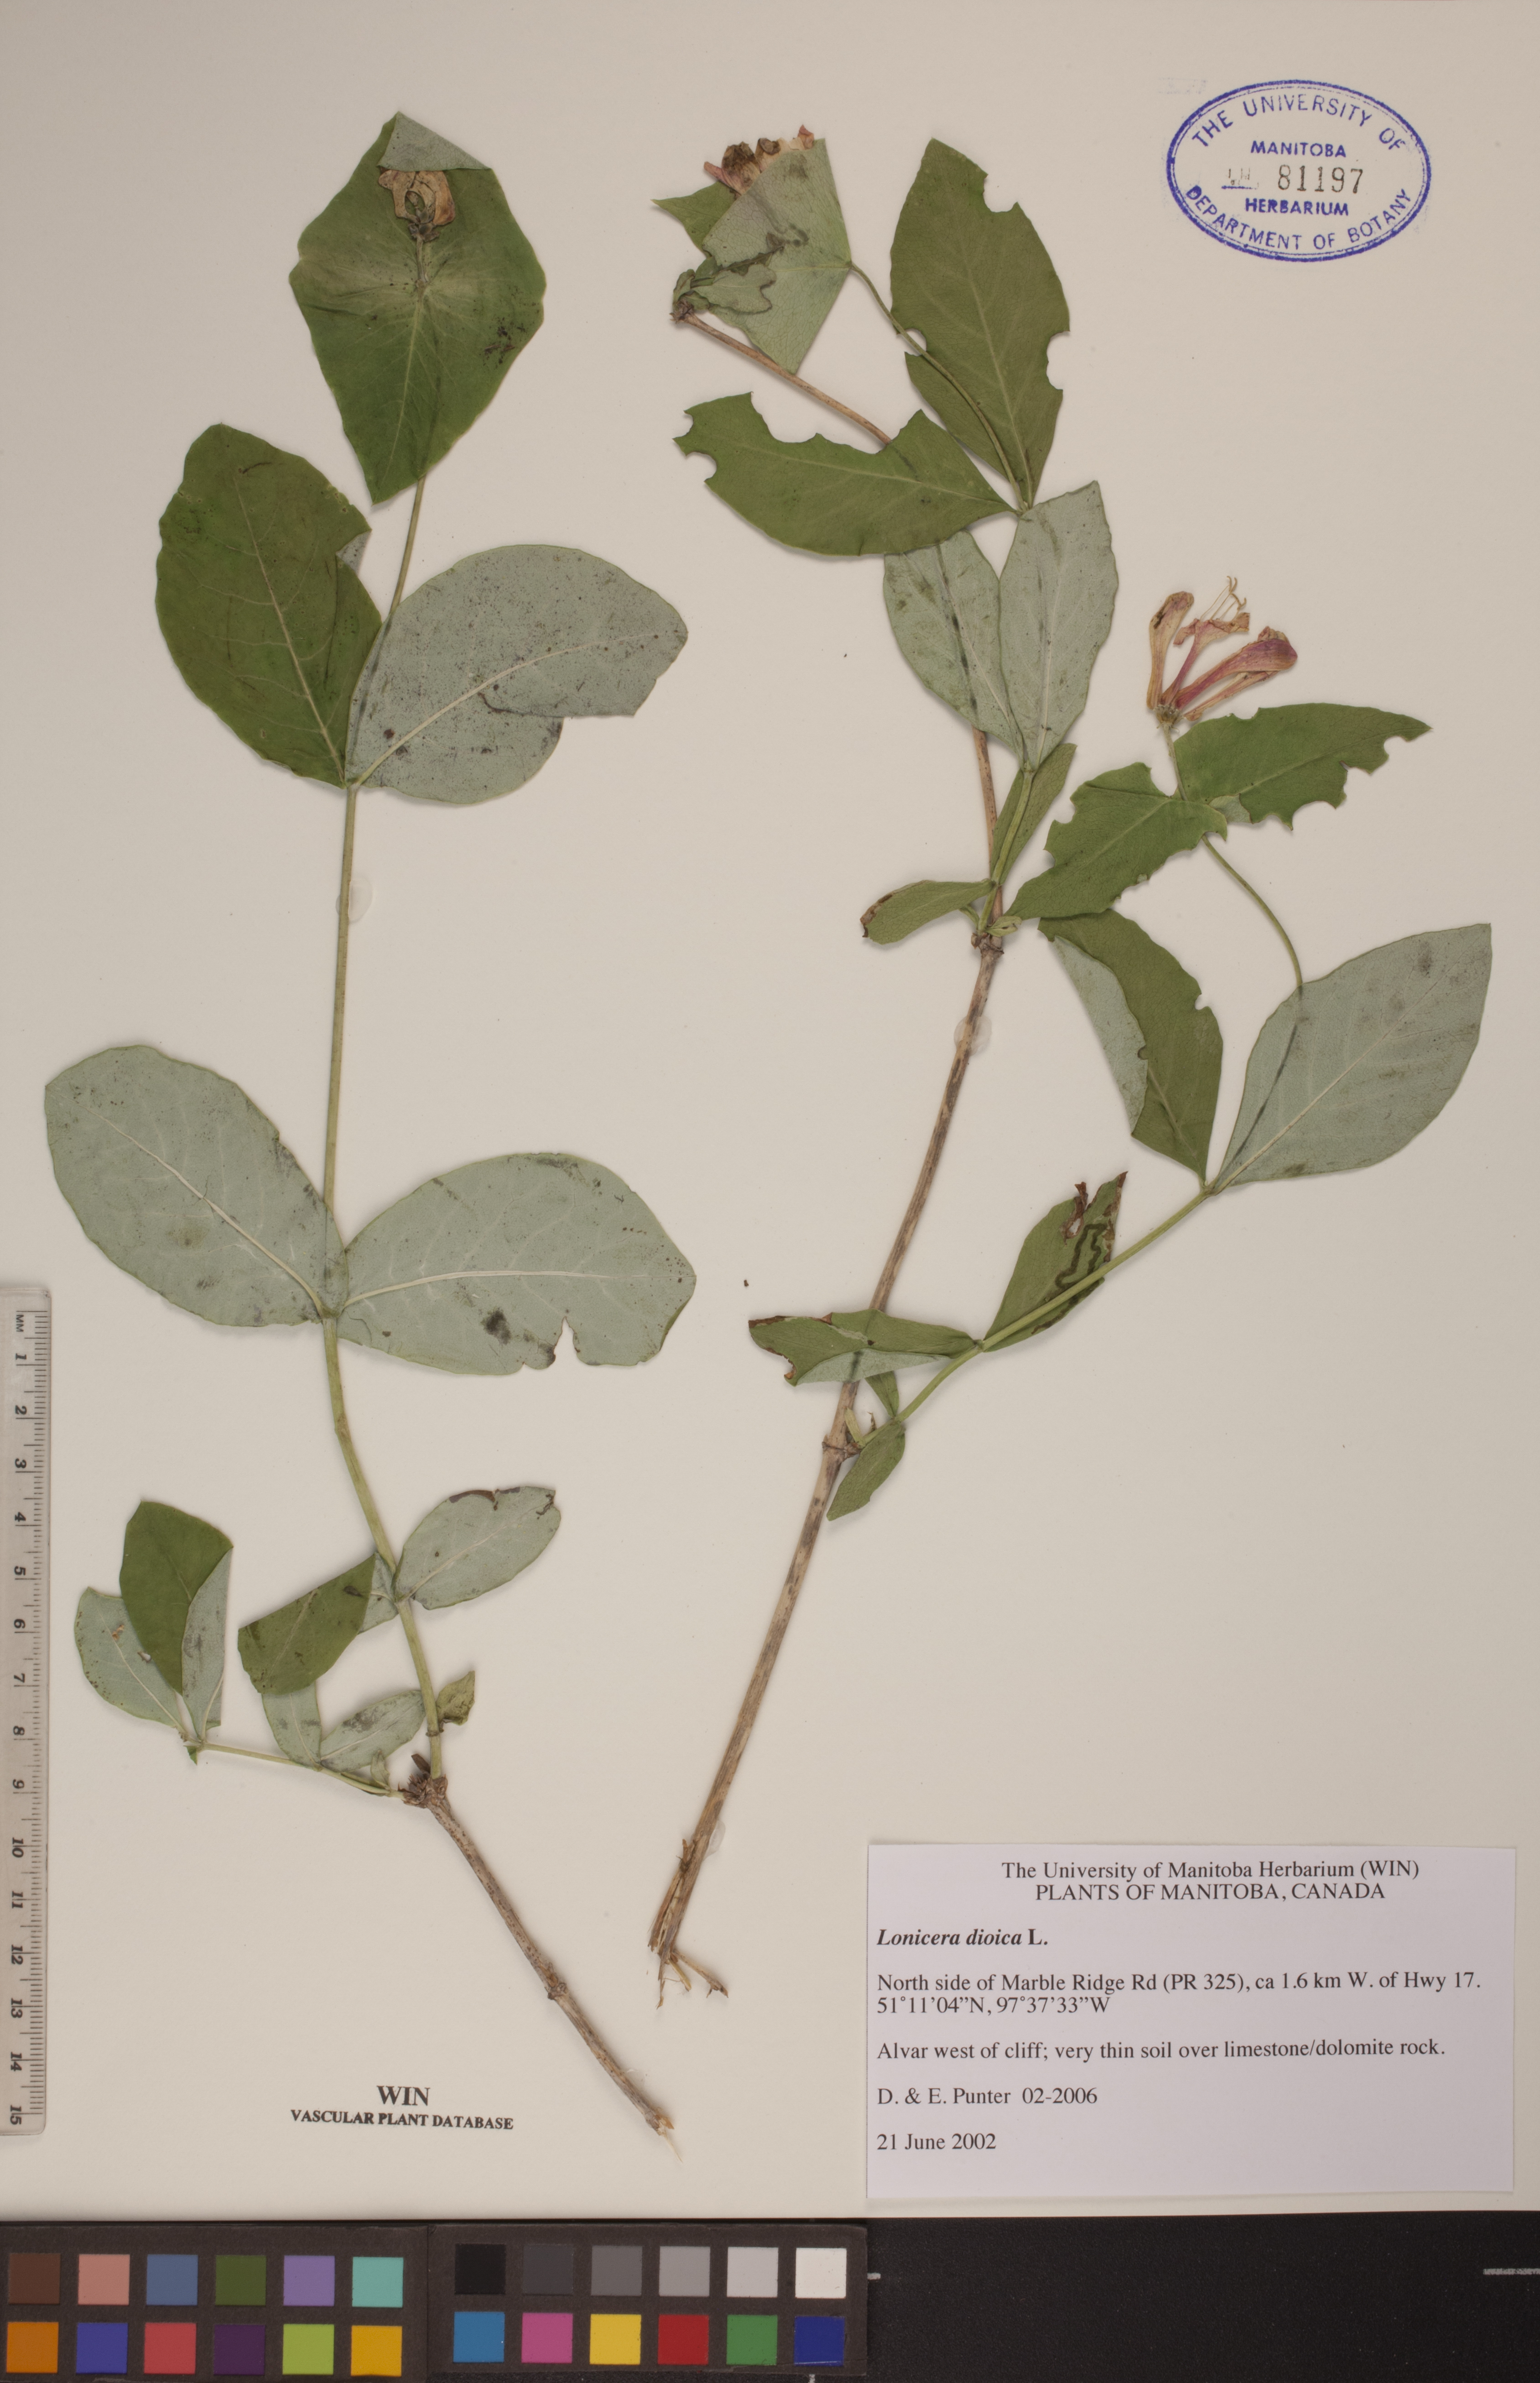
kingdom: Plantae
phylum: Tracheophyta
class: Magnoliopsida
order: Dipsacales
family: Caprifoliaceae
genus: Lonicera
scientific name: Lonicera dioica
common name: Limber honeysuckle
